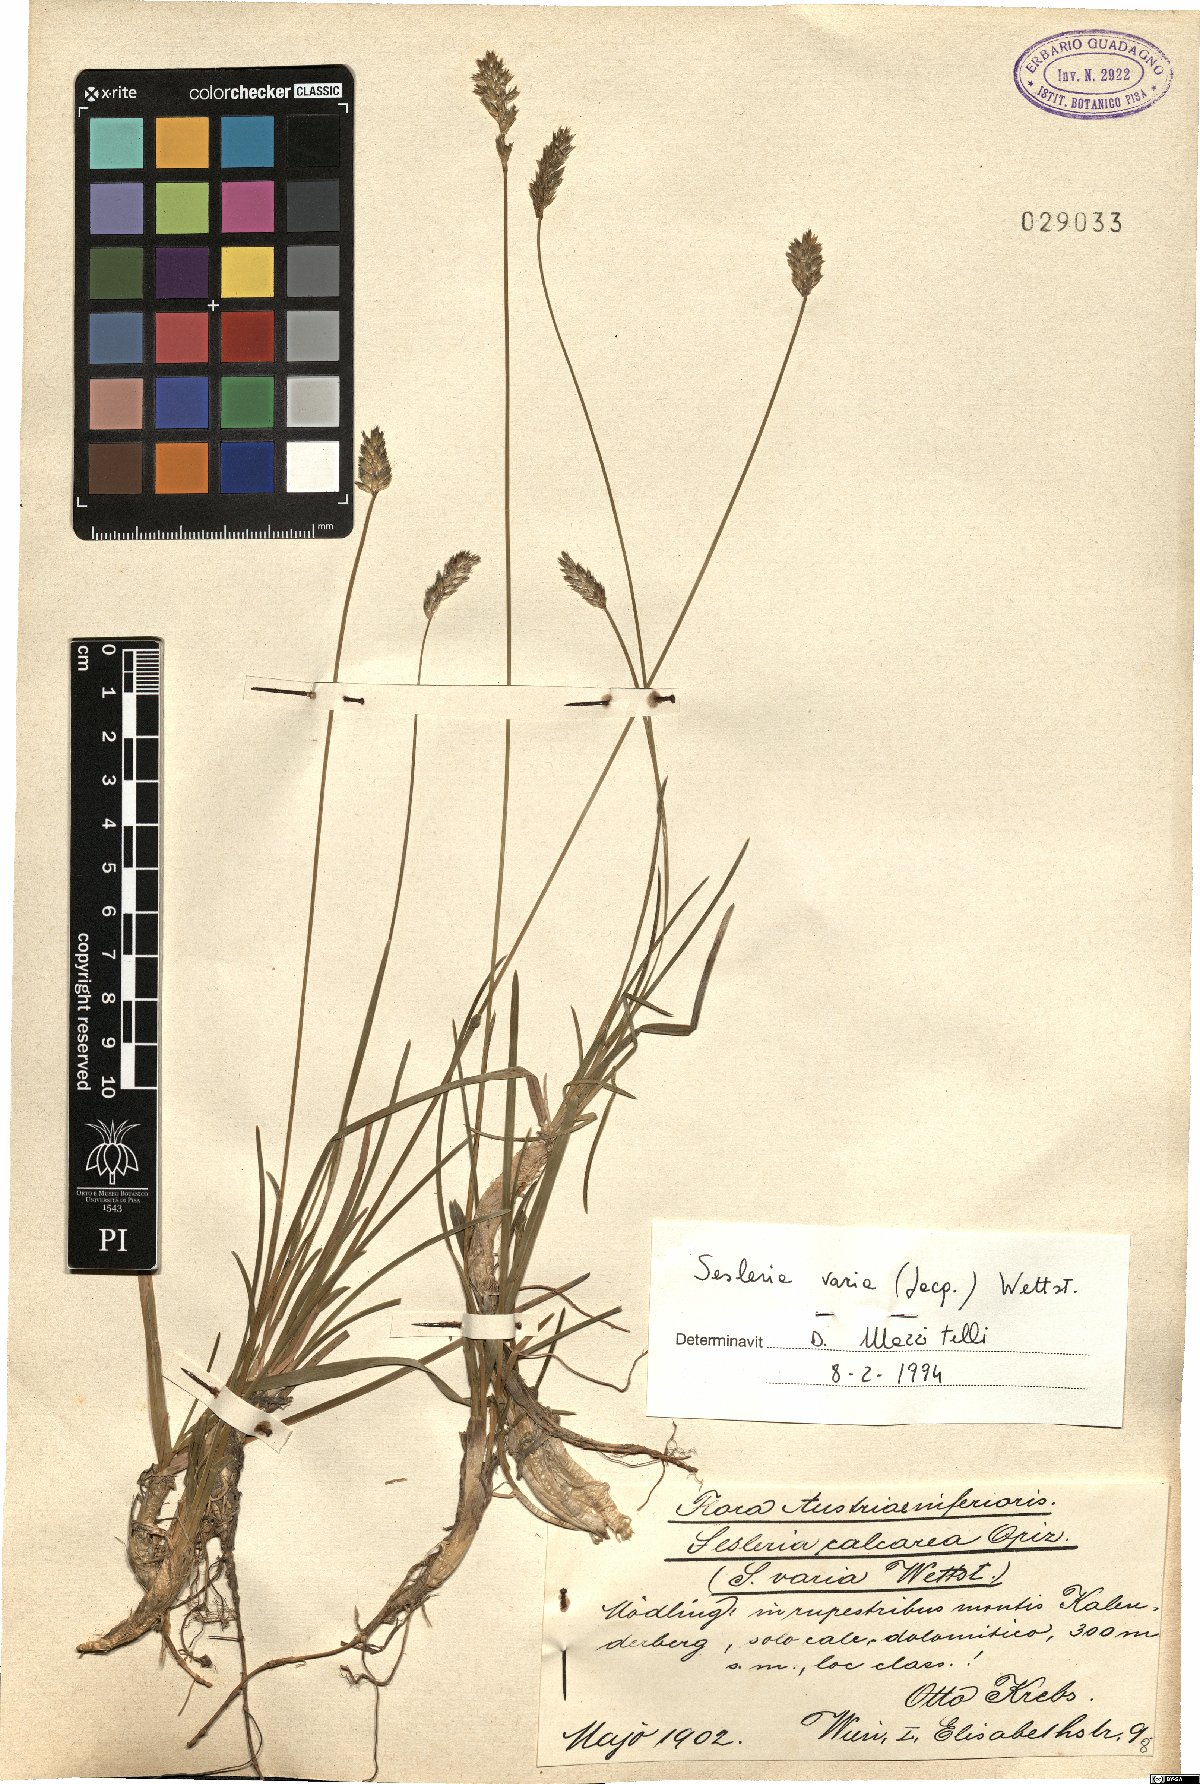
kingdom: Plantae
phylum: Tracheophyta
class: Liliopsida
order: Poales
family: Poaceae
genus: Sesleria
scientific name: Sesleria caerulea
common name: Blue moor-grass
